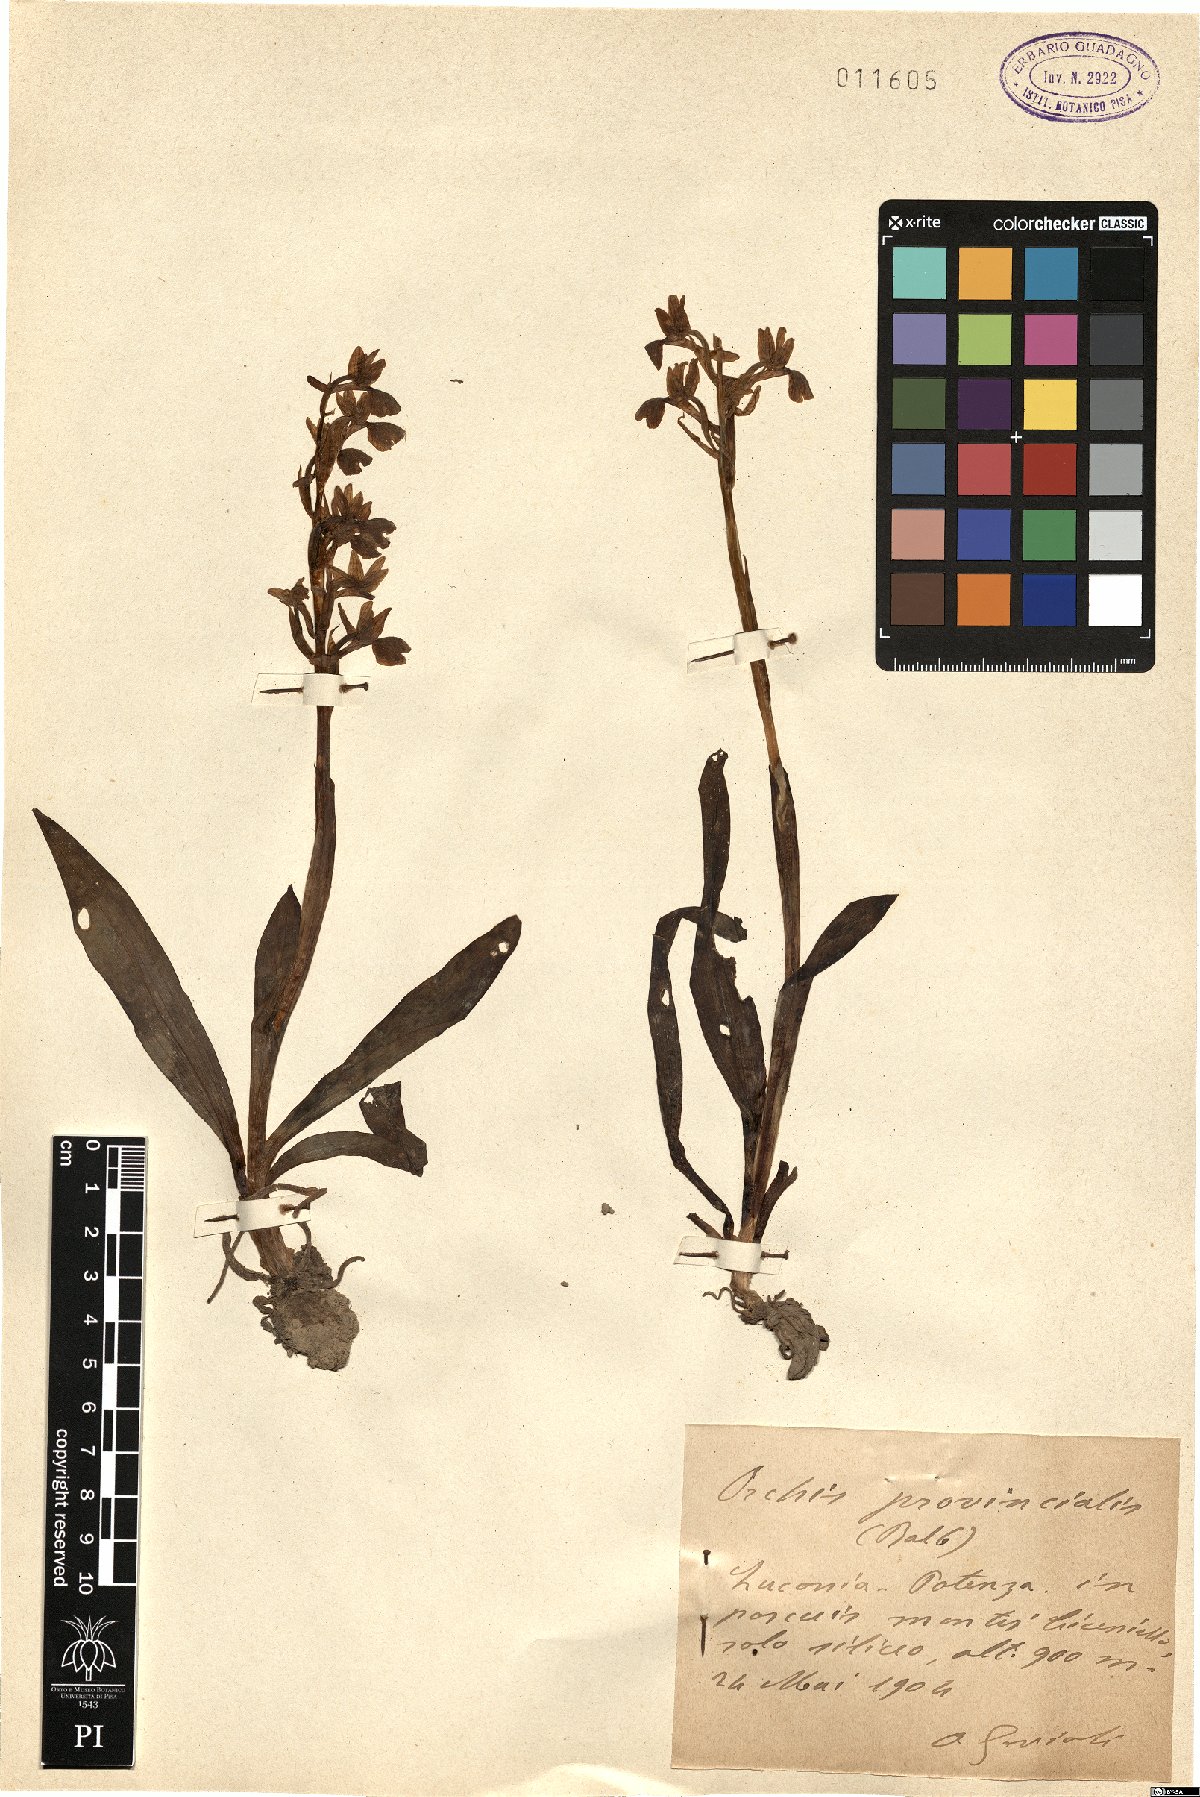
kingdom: Plantae
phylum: Tracheophyta
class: Liliopsida
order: Asparagales
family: Orchidaceae
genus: Orchis
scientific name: Orchis provincialis
